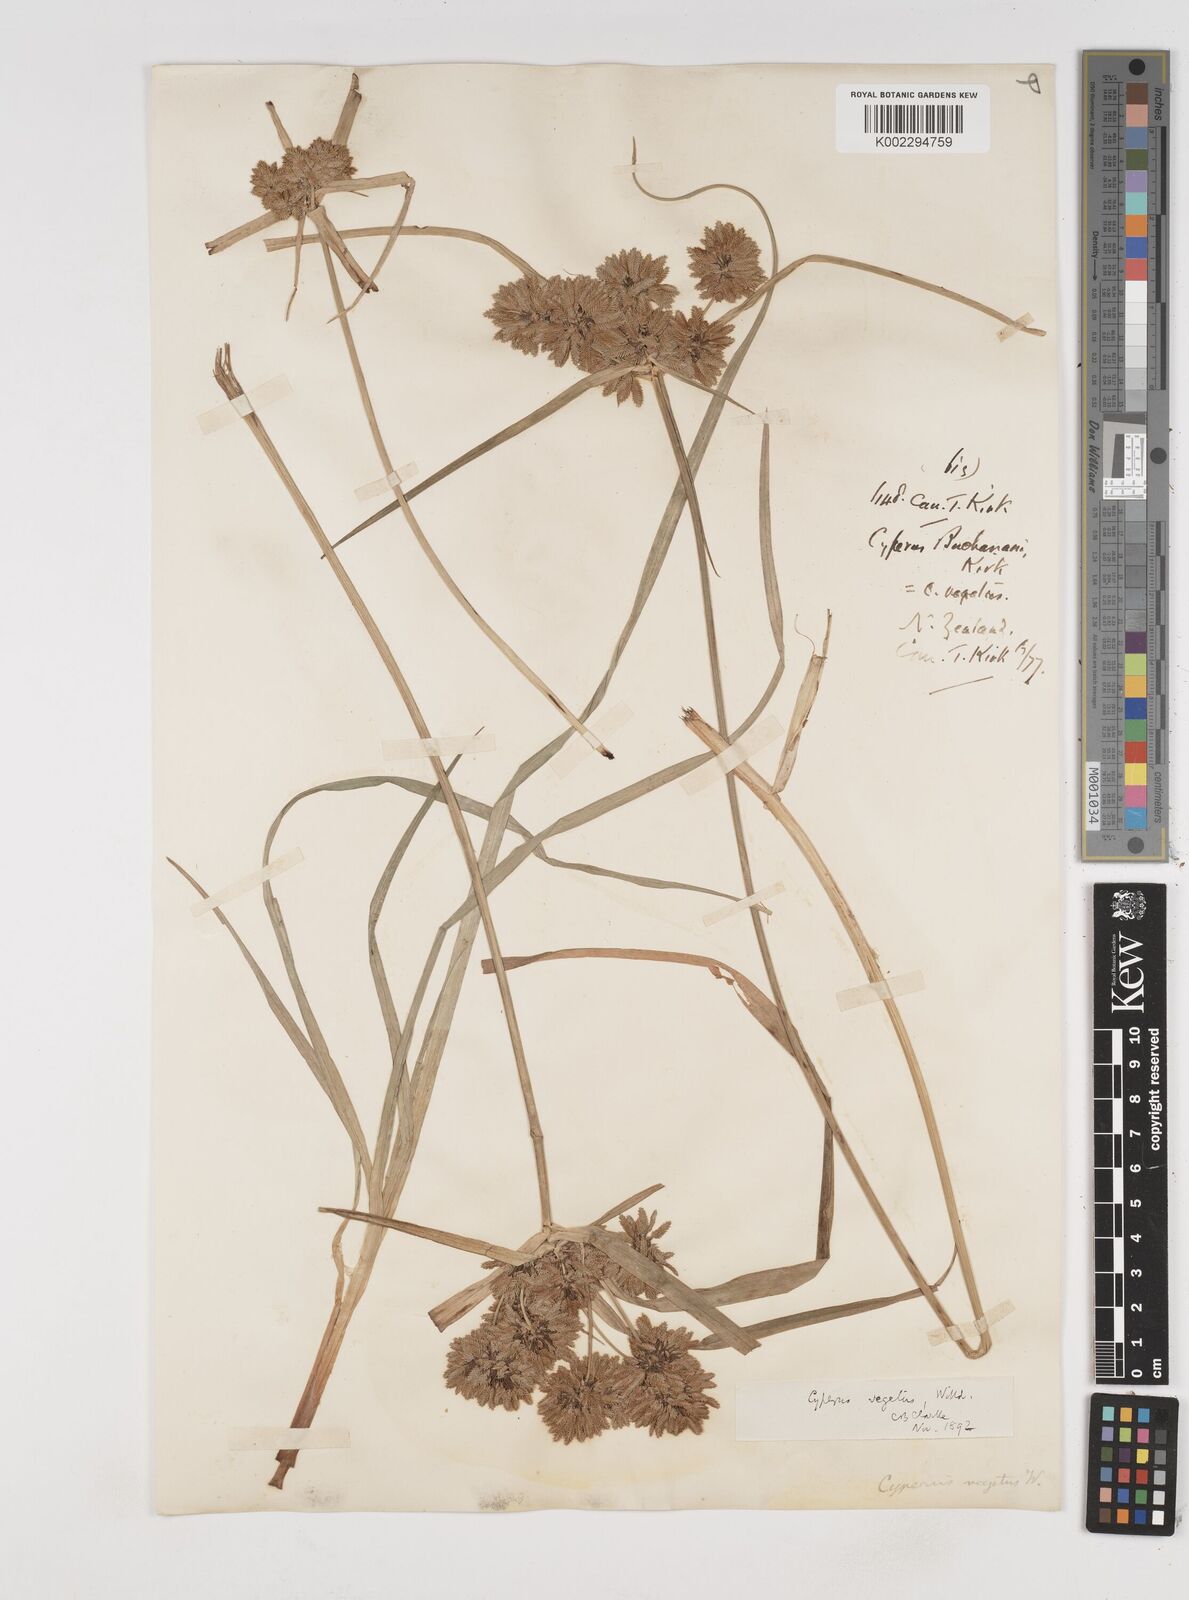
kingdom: Plantae
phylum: Tracheophyta
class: Liliopsida
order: Poales
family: Cyperaceae
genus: Cyperus
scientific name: Cyperus eragrostis
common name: Tall flatsedge
